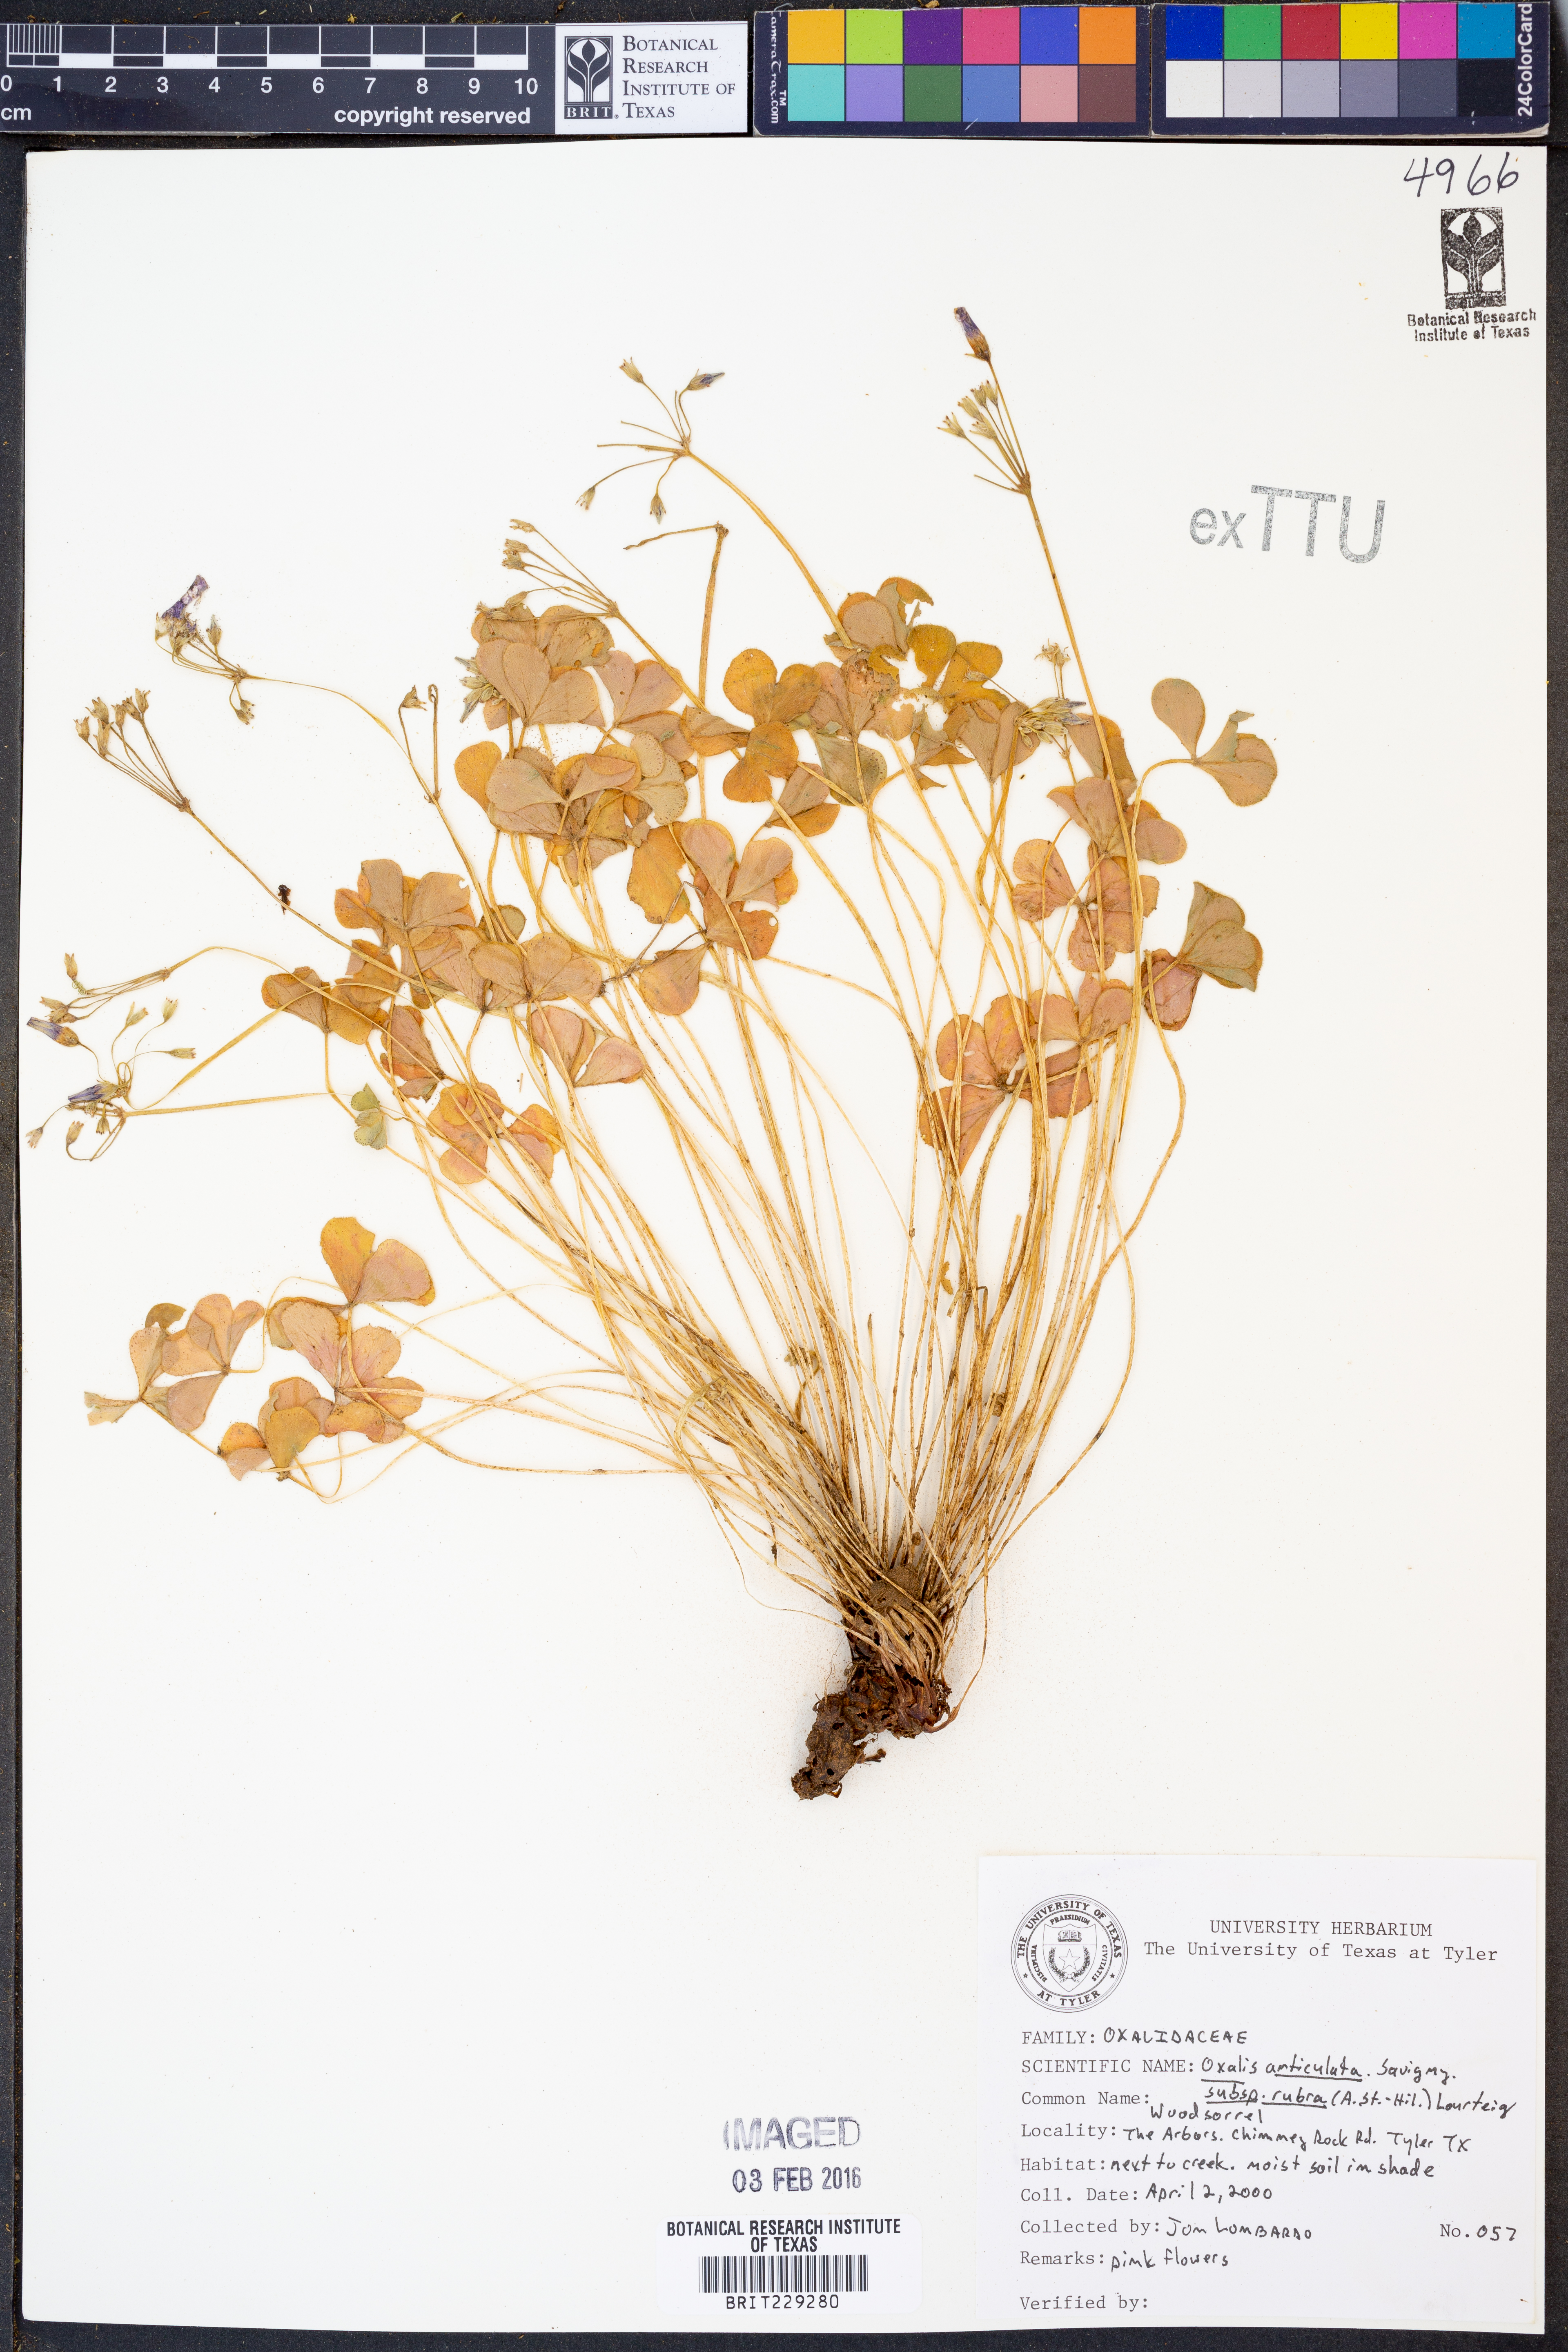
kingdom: Plantae
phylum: Tracheophyta
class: Magnoliopsida
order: Oxalidales
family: Oxalidaceae
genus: Oxalis
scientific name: Oxalis articulata
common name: Pink-sorrel
